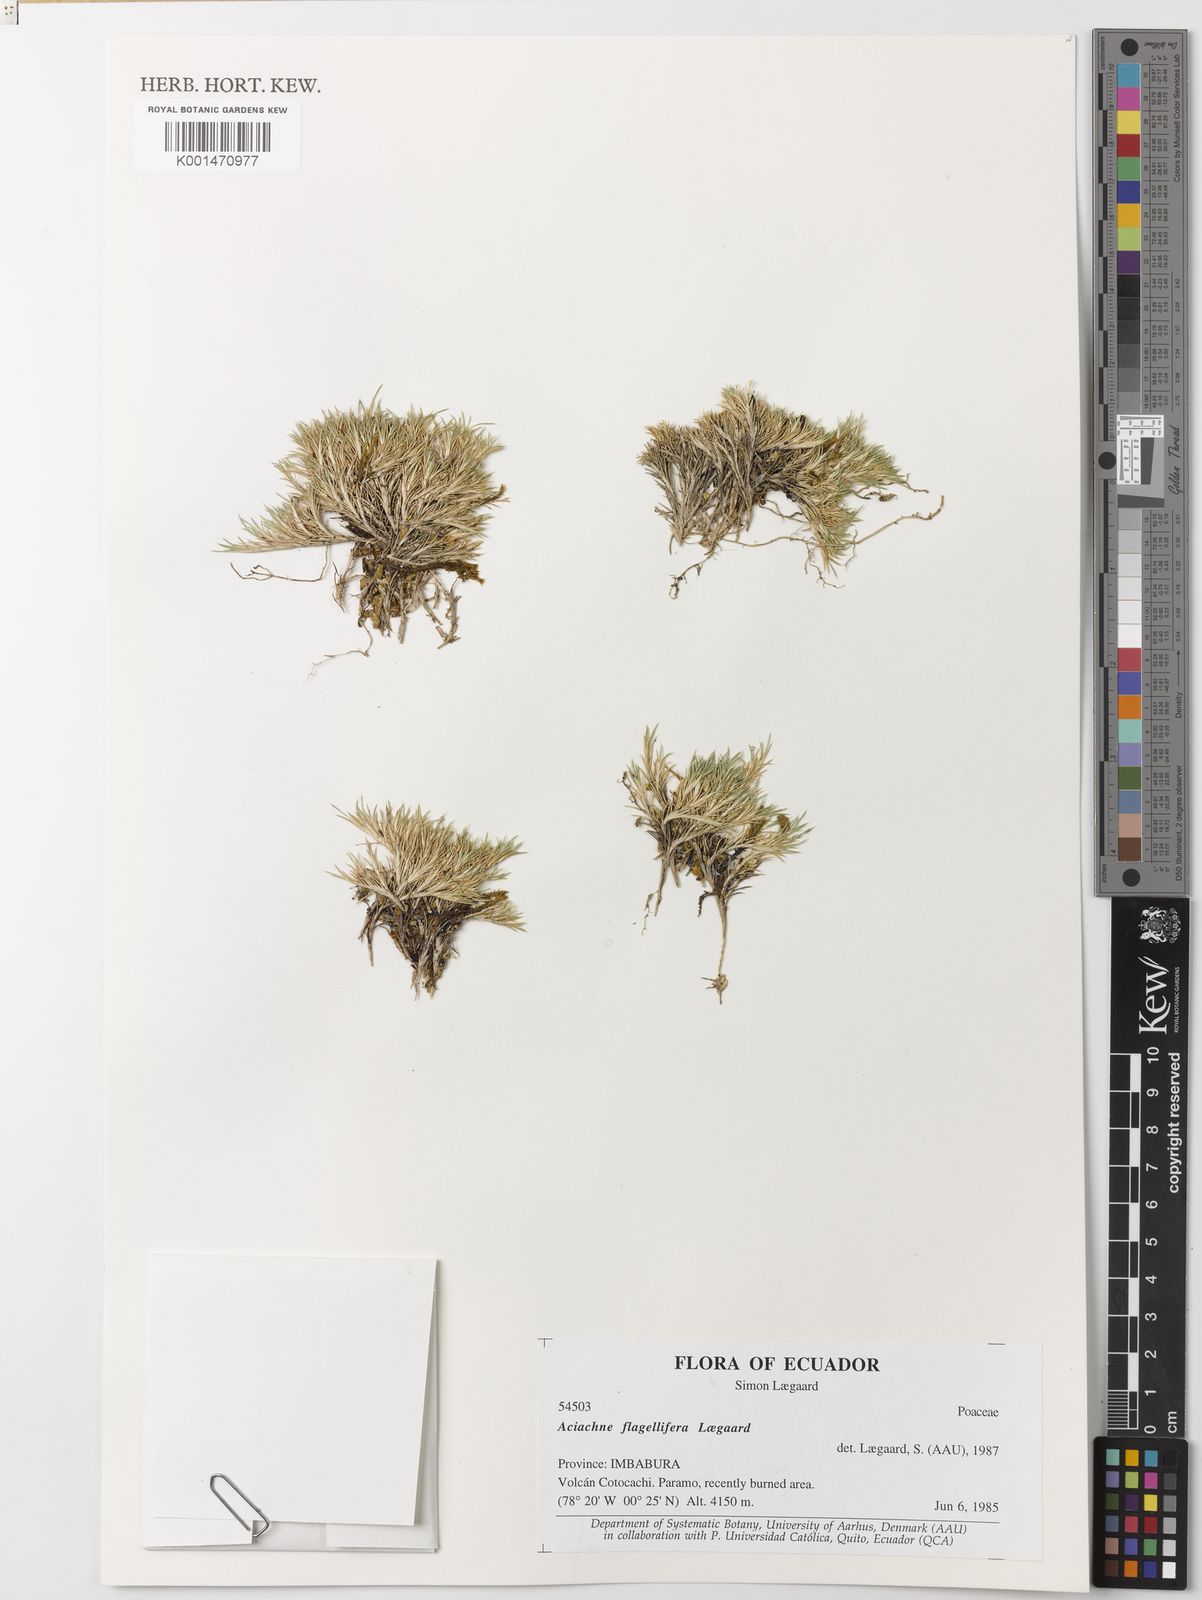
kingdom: Plantae
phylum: Tracheophyta
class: Liliopsida
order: Poales
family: Poaceae
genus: Aciachne
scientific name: Aciachne flagellifera
